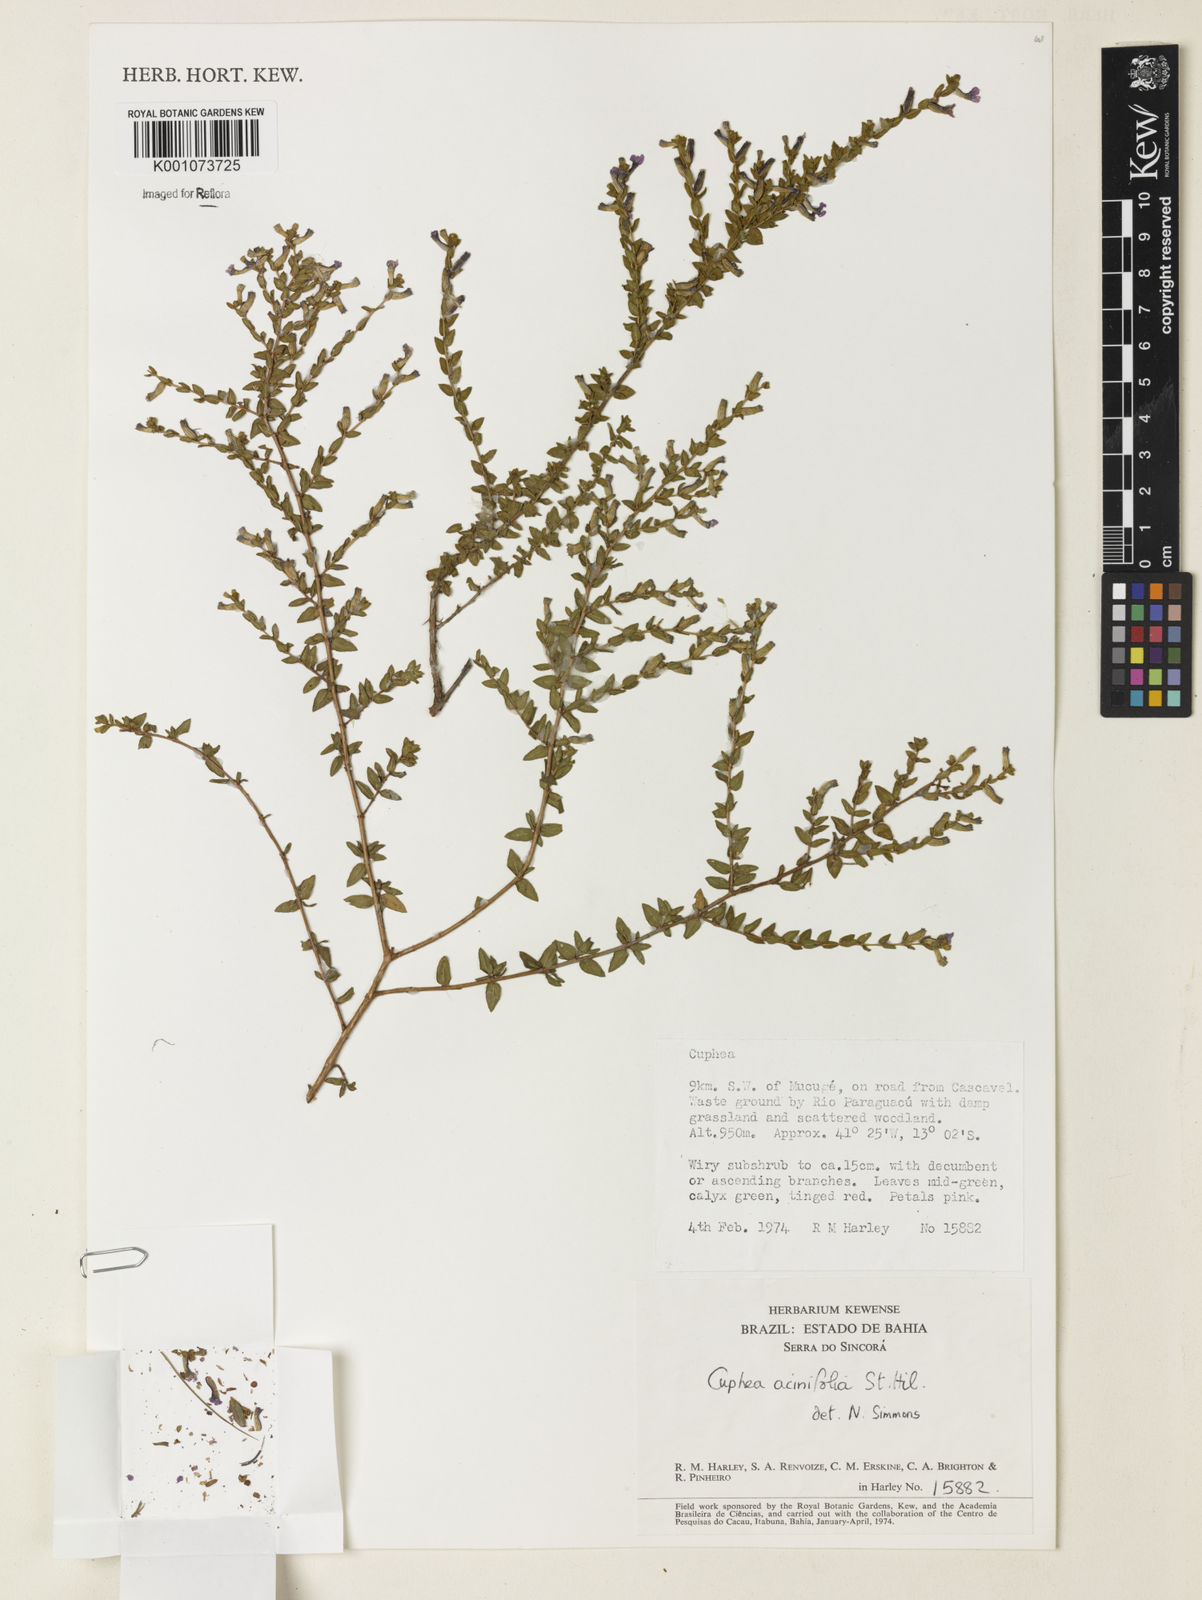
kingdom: Plantae
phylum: Tracheophyta
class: Magnoliopsida
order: Myrtales
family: Lythraceae
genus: Cuphea
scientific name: Cuphea acinifolia
